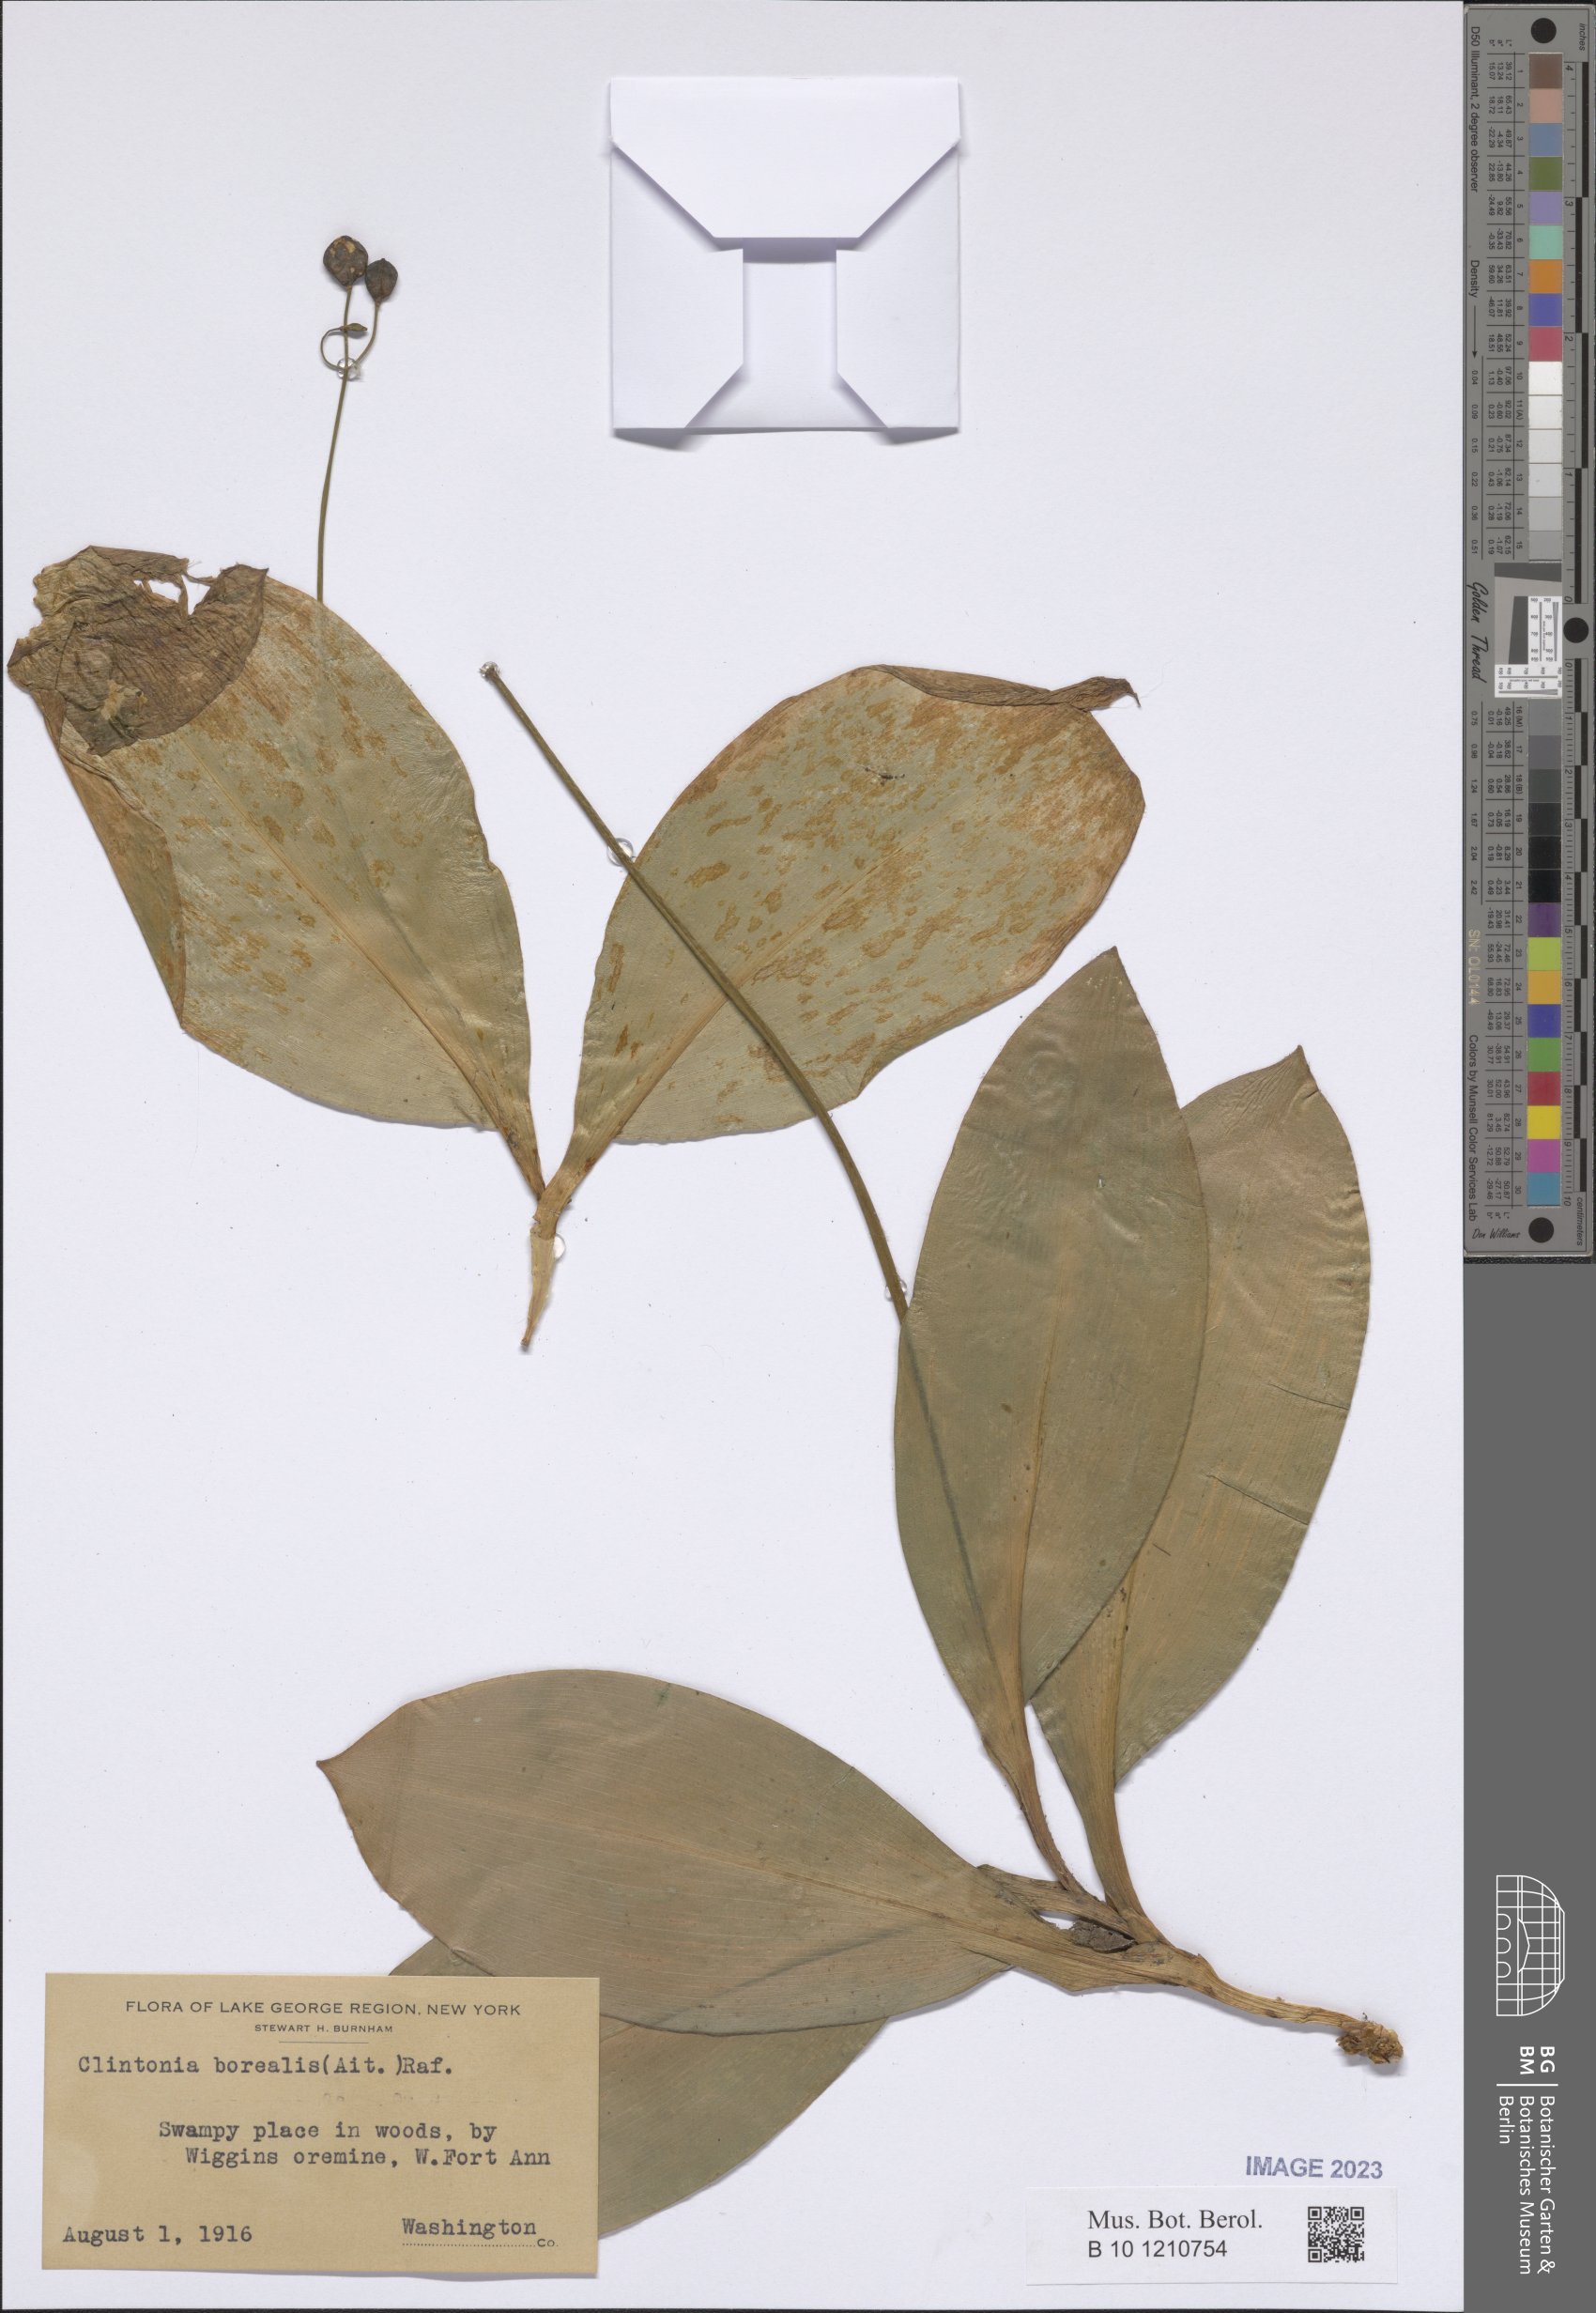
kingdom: Plantae
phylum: Tracheophyta
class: Liliopsida
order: Liliales
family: Liliaceae
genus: Clintonia
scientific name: Clintonia borealis
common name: Yellow clintonia
